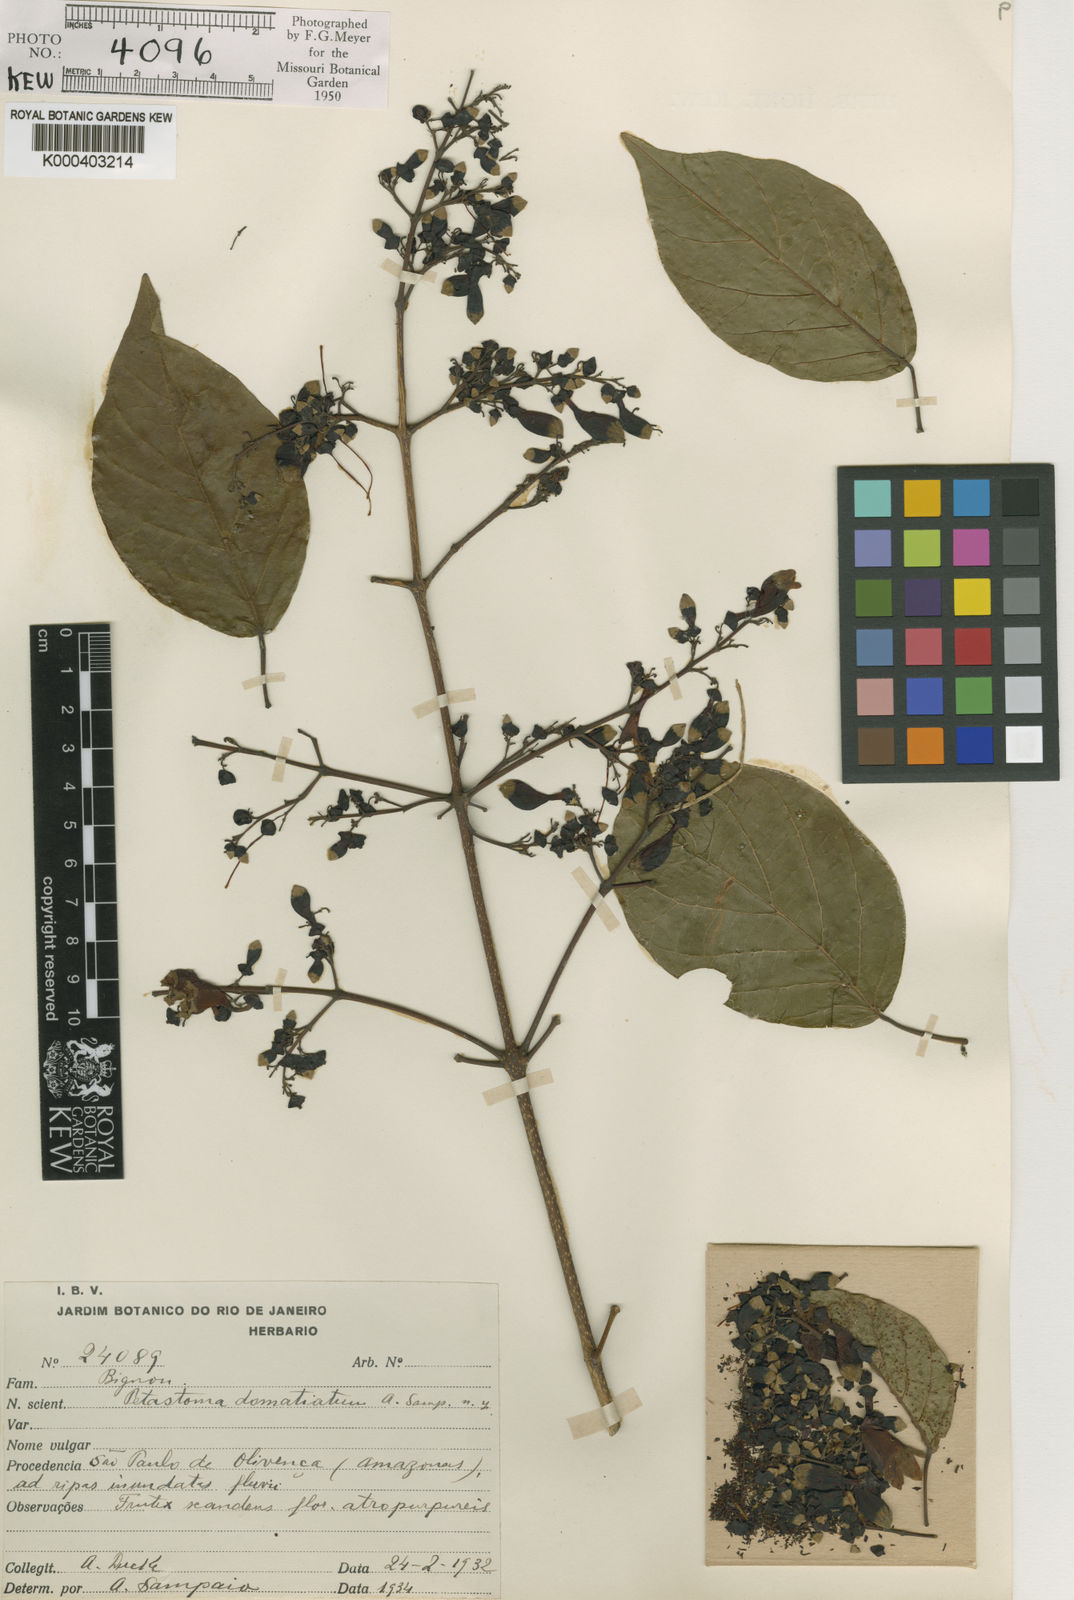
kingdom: Plantae
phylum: Tracheophyta
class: Magnoliopsida
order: Lamiales
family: Bignoniaceae
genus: Fridericia
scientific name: Fridericia patellifera
